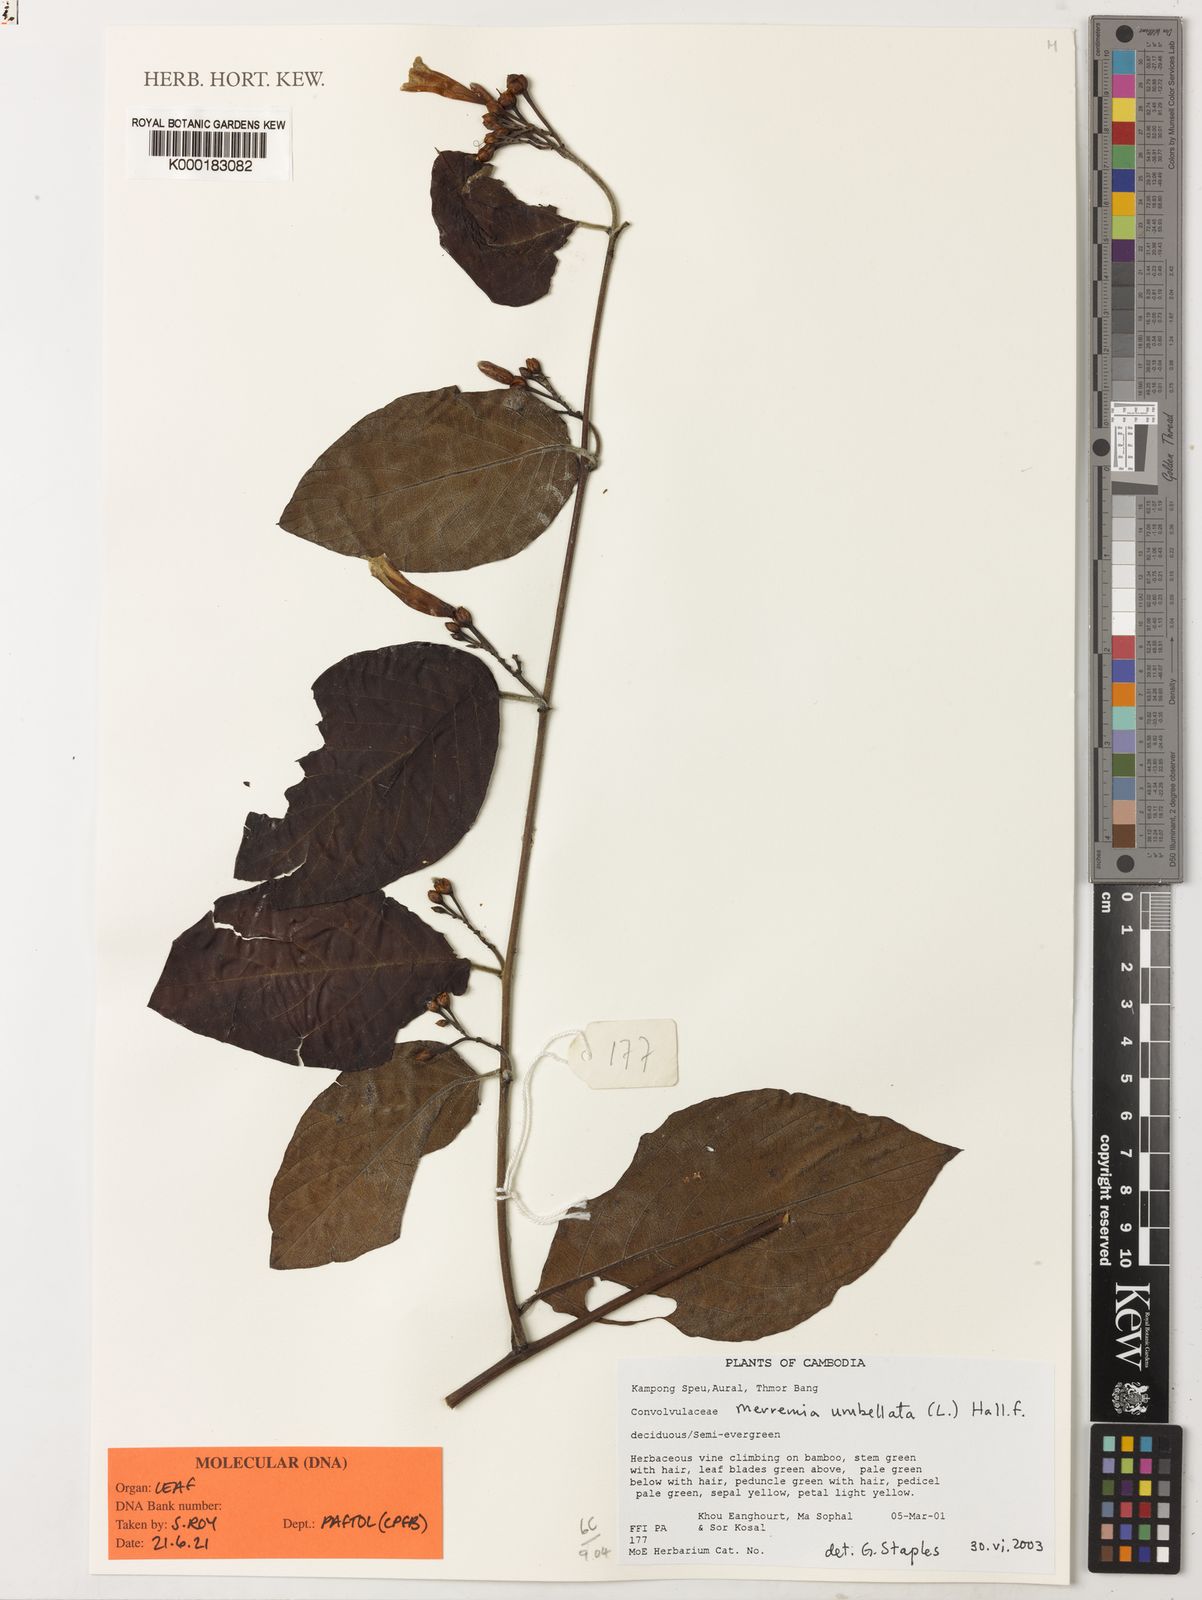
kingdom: Plantae
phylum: Tracheophyta
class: Magnoliopsida
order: Solanales
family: Convolvulaceae
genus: Camonea
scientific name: Camonea umbellata
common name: Hogvine
